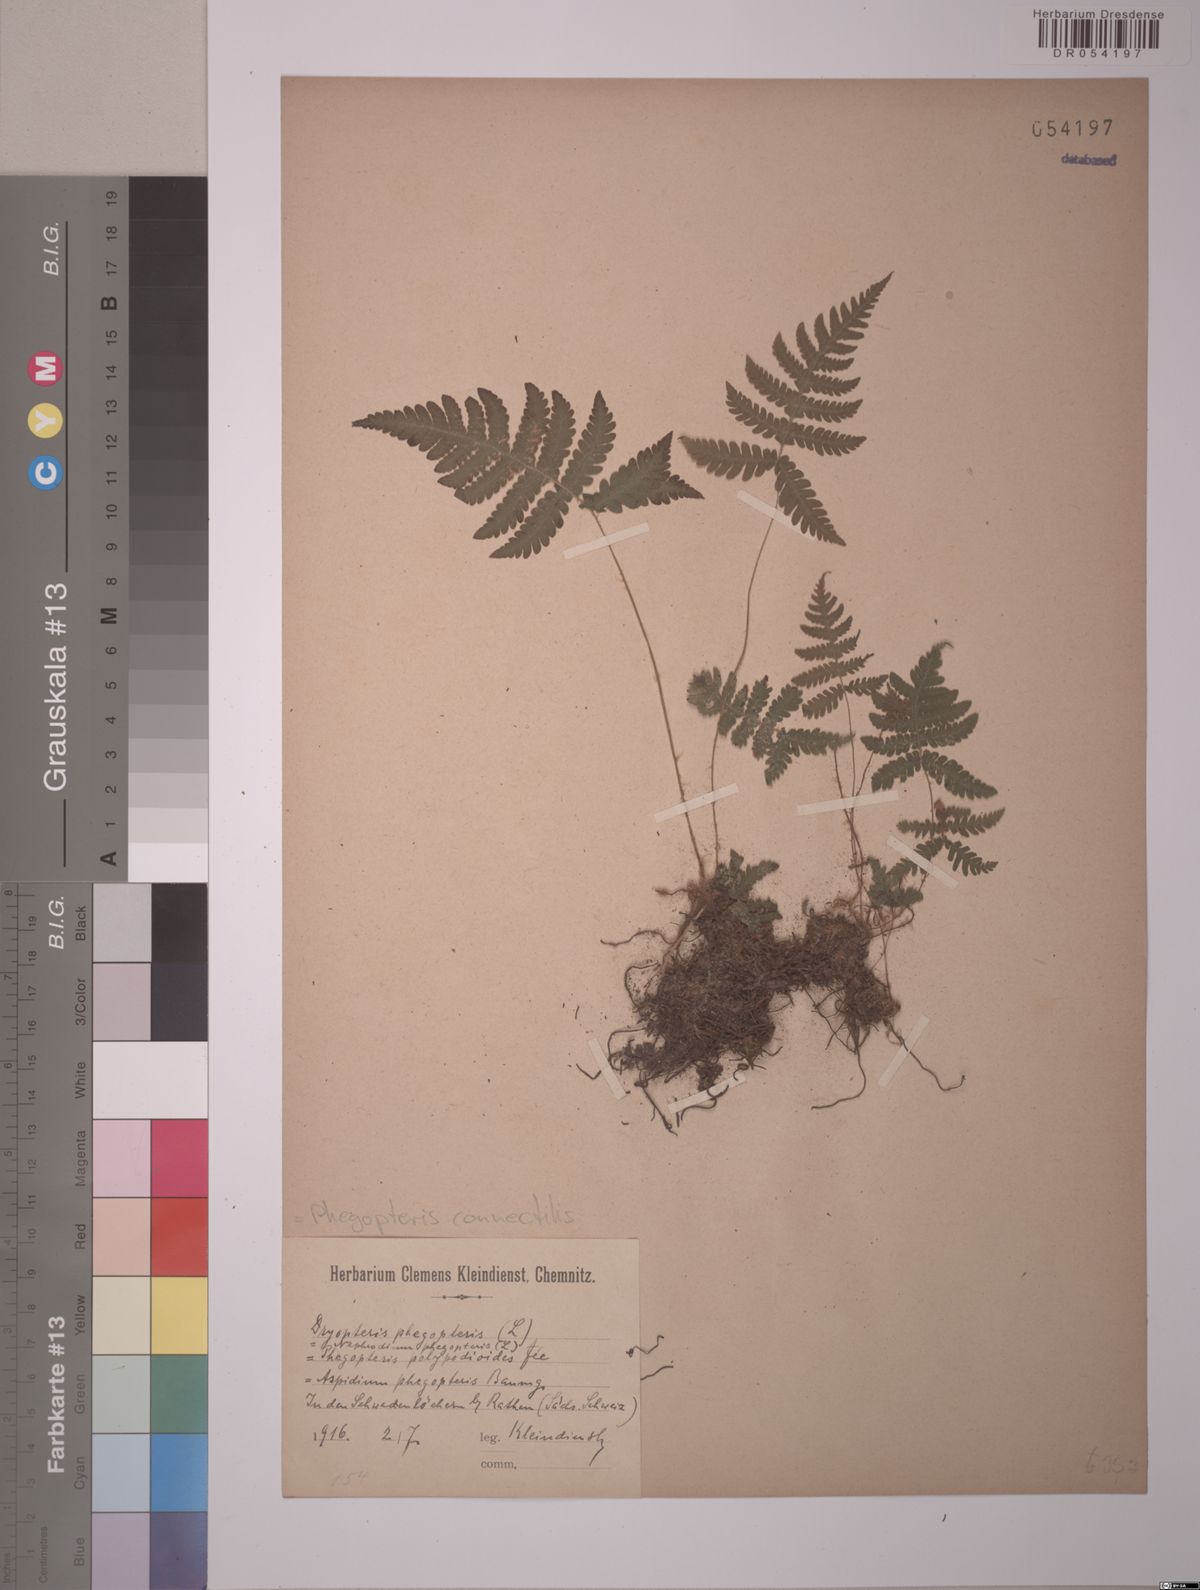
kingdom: Plantae
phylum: Tracheophyta
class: Polypodiopsida
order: Polypodiales
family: Thelypteridaceae
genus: Phegopteris
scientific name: Phegopteris connectilis
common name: Beech fern
